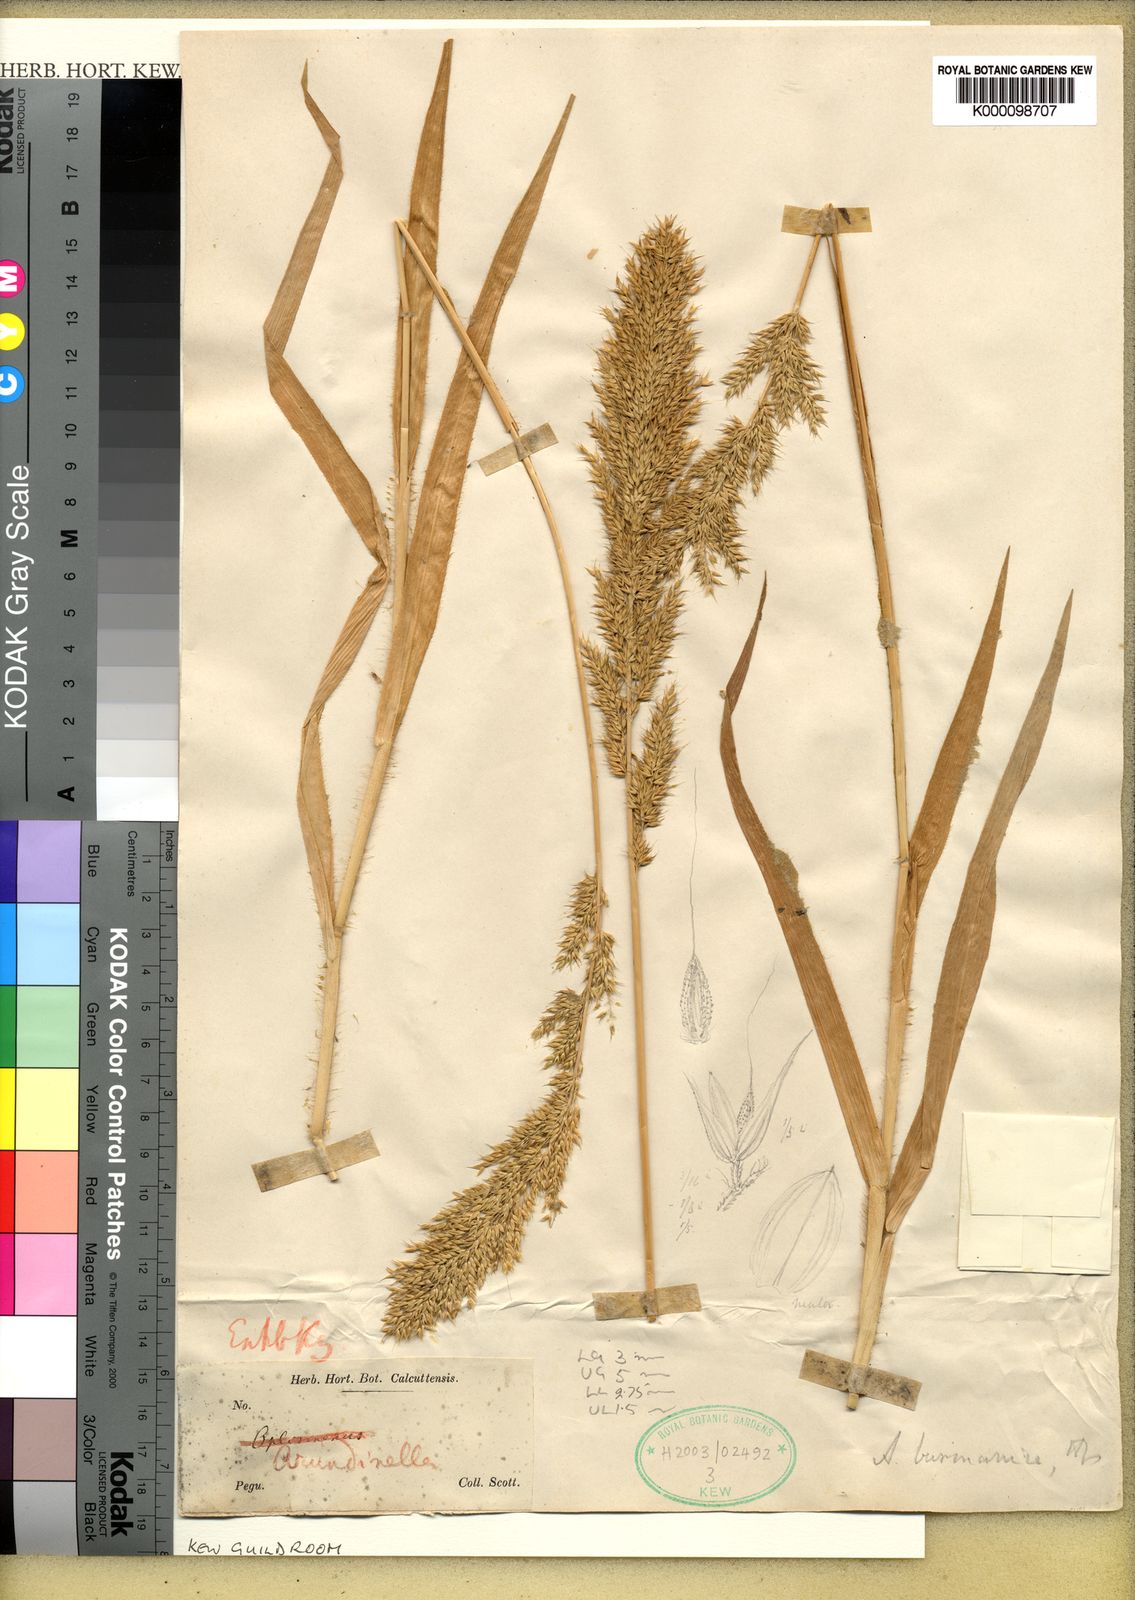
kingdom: Plantae
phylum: Tracheophyta
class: Liliopsida
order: Poales
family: Poaceae
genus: Arundinella
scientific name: Arundinella holcoides
